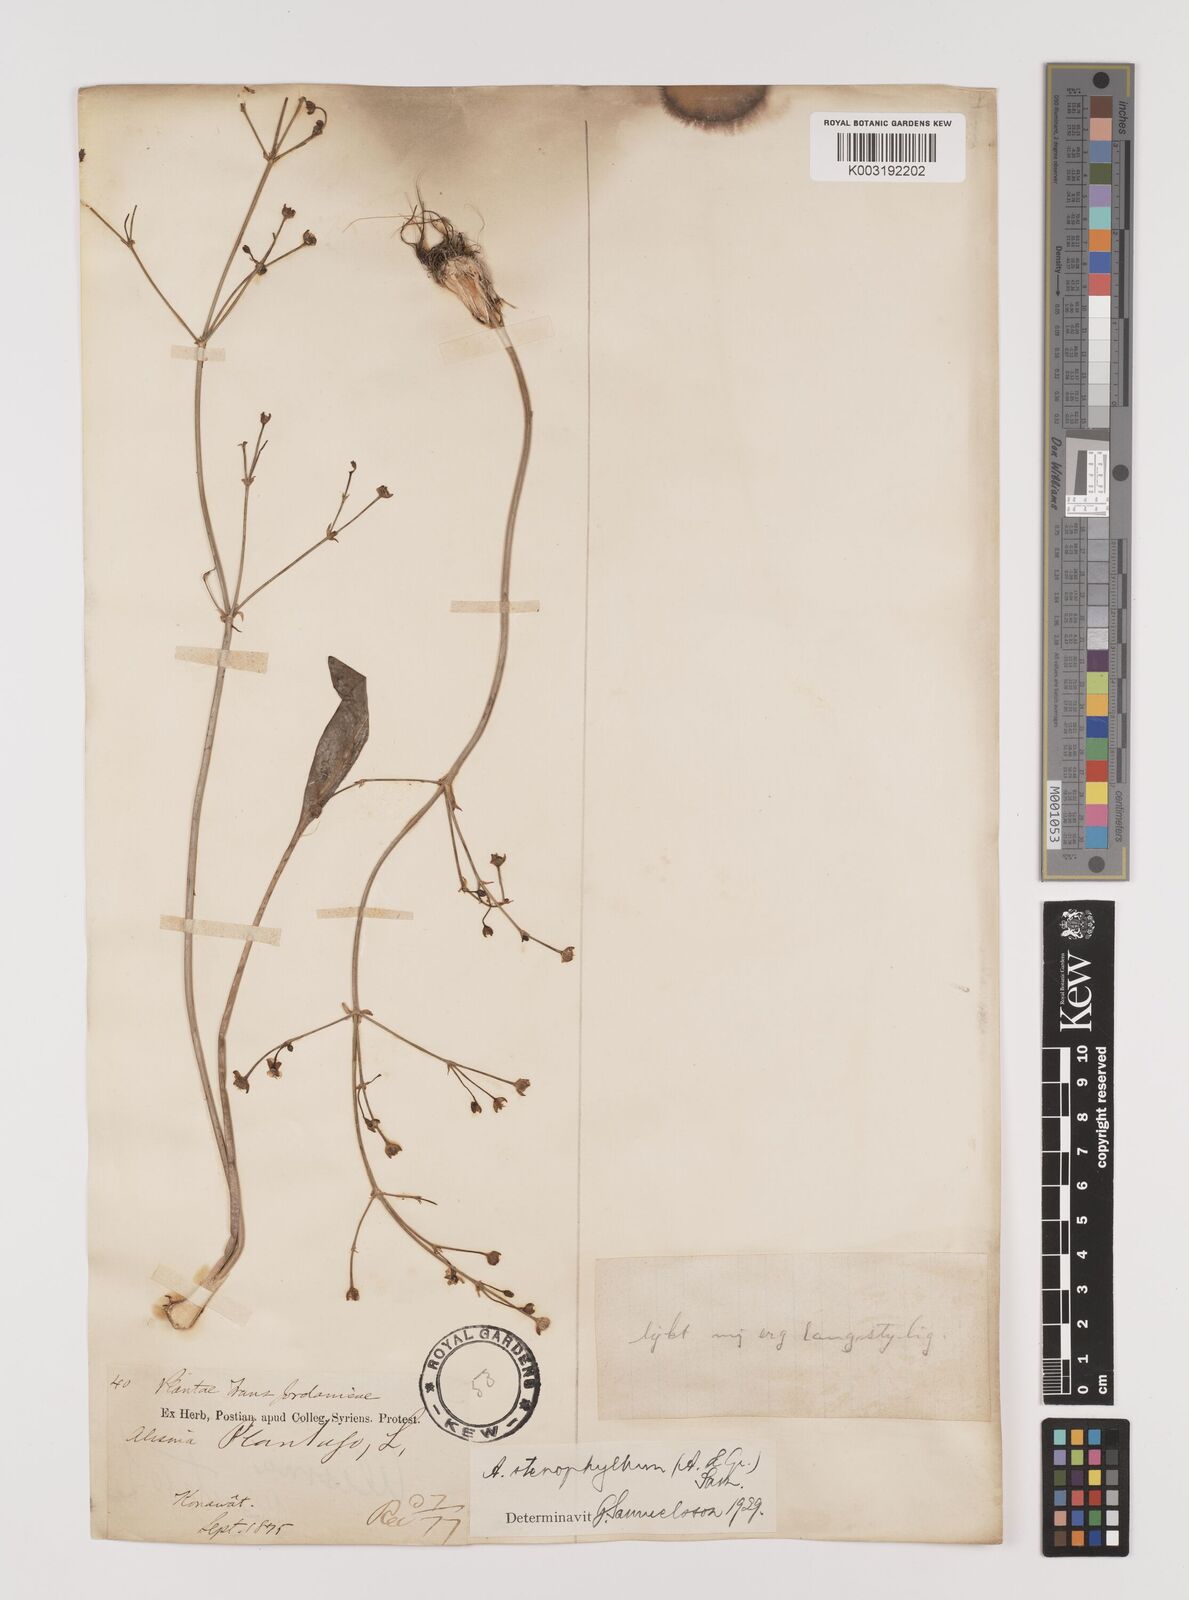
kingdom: Plantae
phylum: Tracheophyta
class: Liliopsida
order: Alismatales
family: Alismataceae
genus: Alisma
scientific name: Alisma lanceolatum
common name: Narrow-leaved water-plantain
